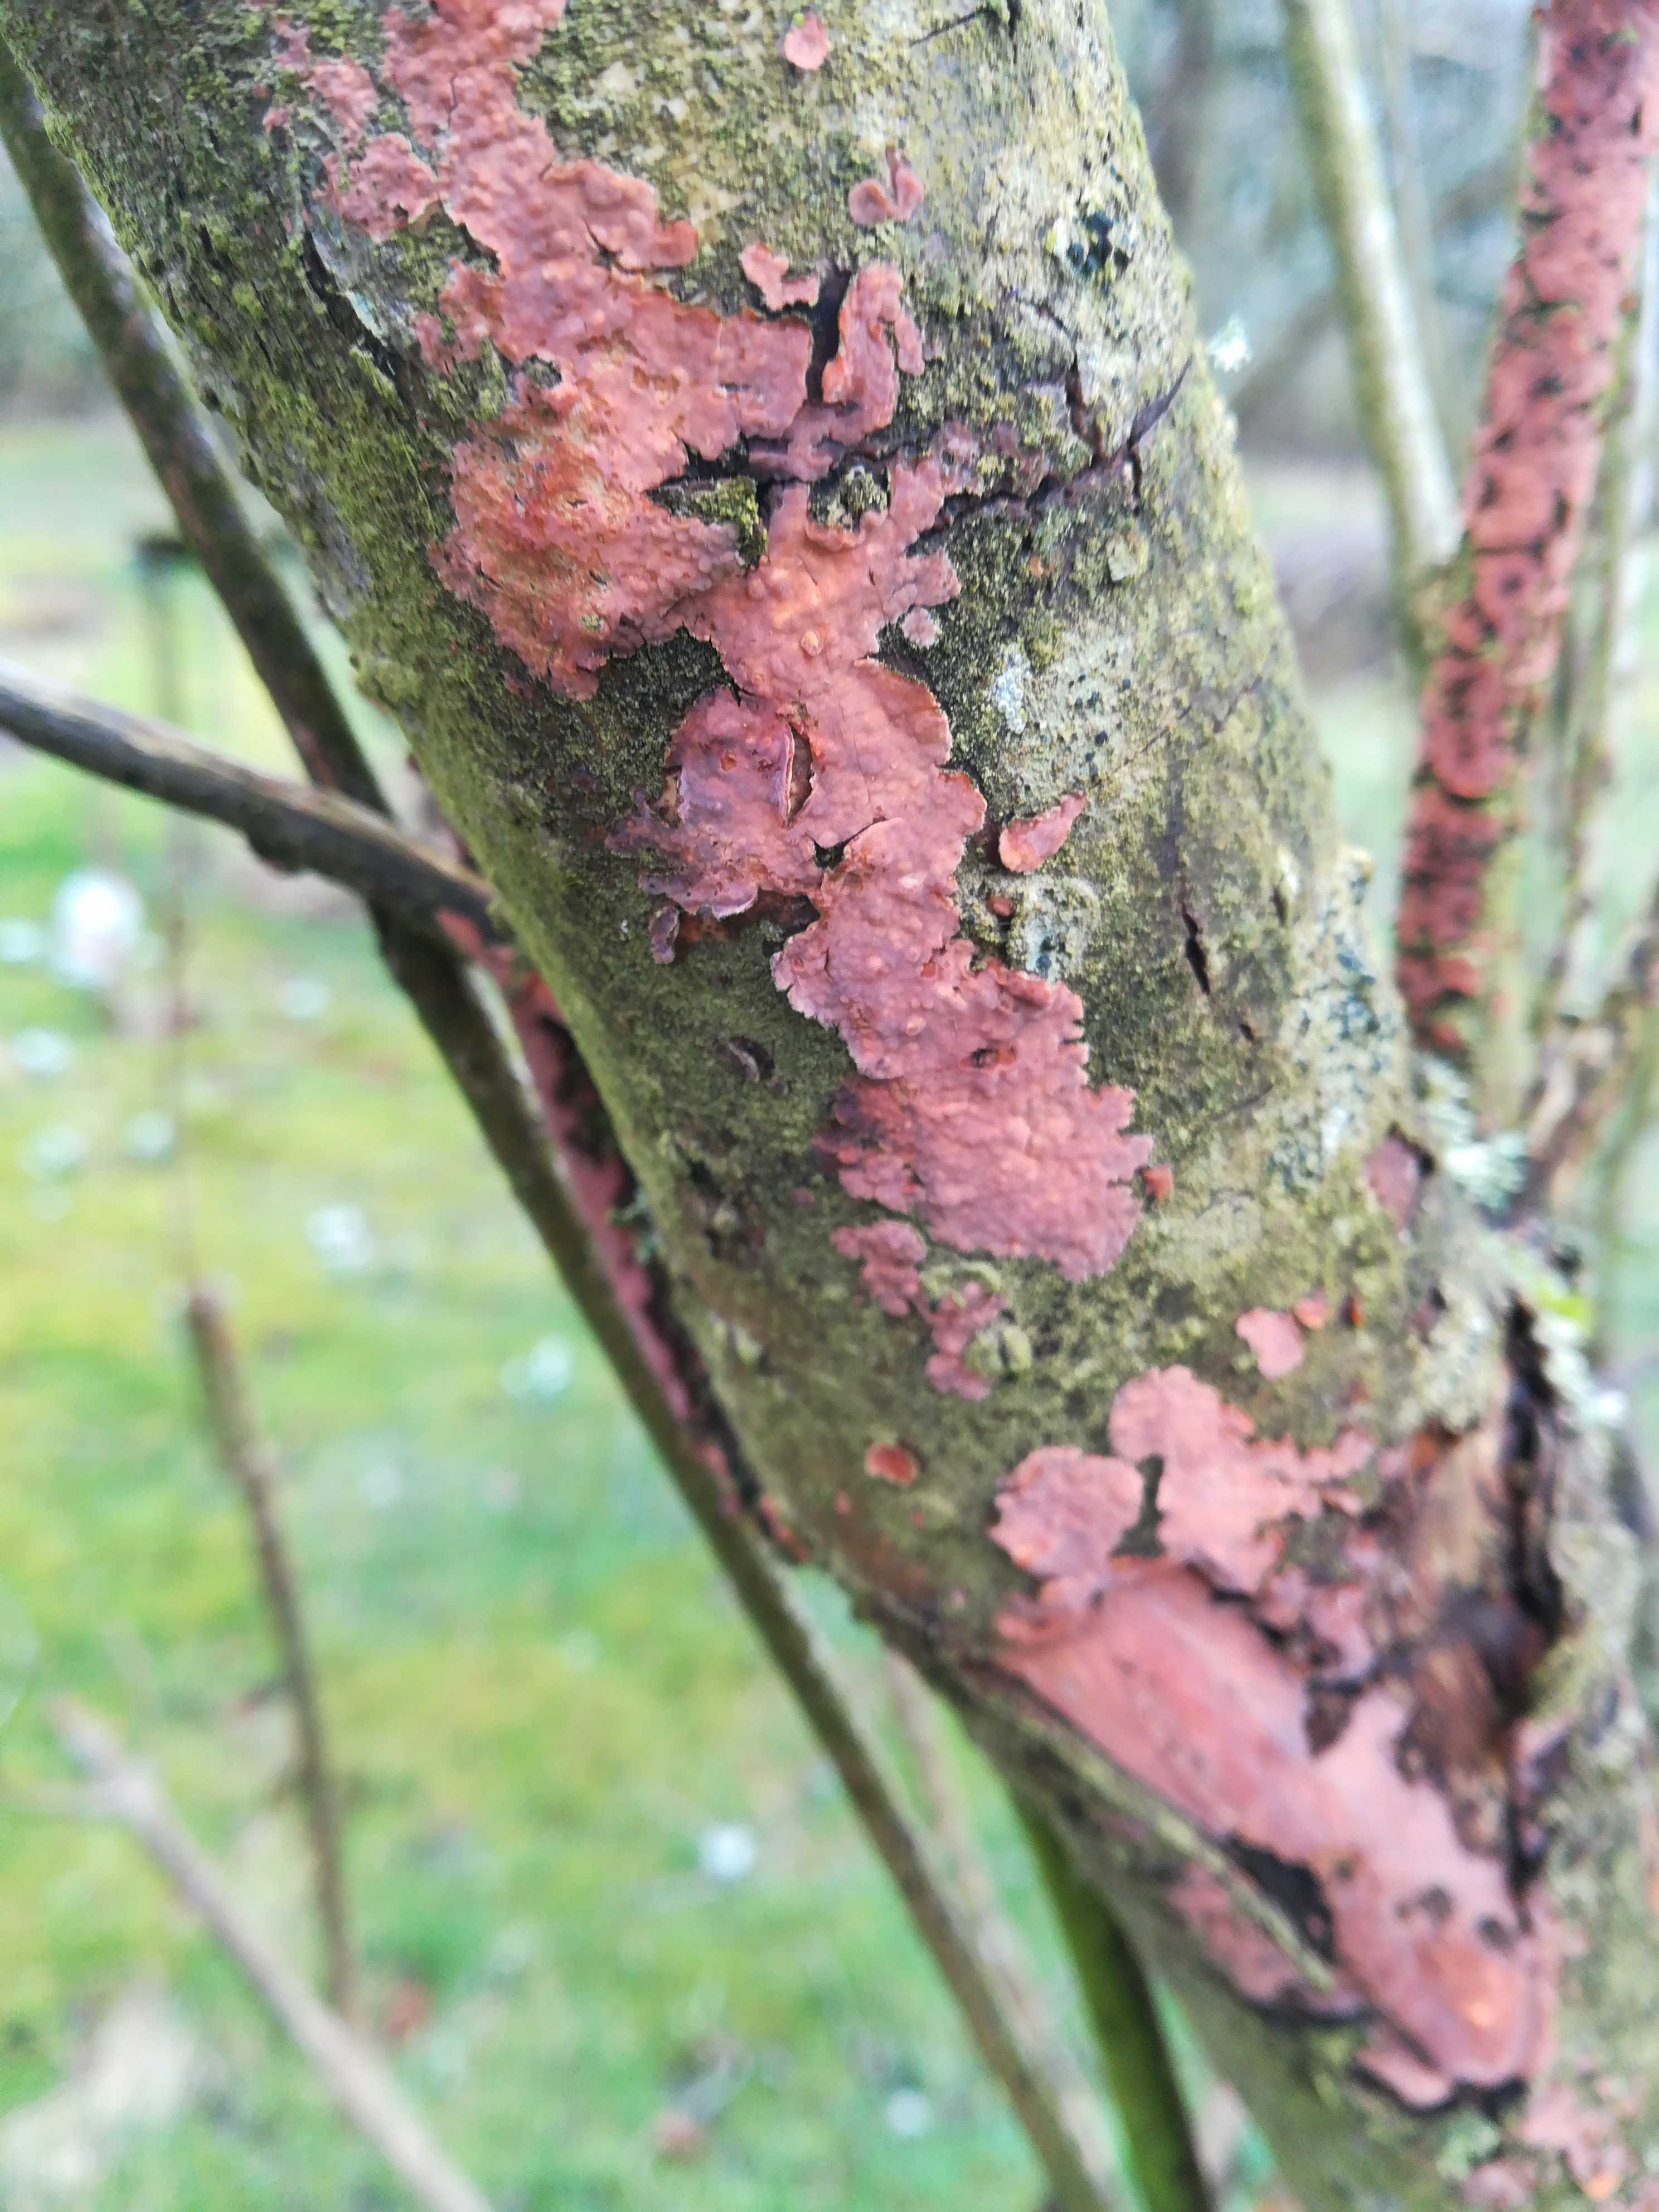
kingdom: Fungi
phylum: Basidiomycota
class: Agaricomycetes
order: Russulales
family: Peniophoraceae
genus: Peniophora
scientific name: Peniophora incarnata
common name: laksefarvet voksskind
